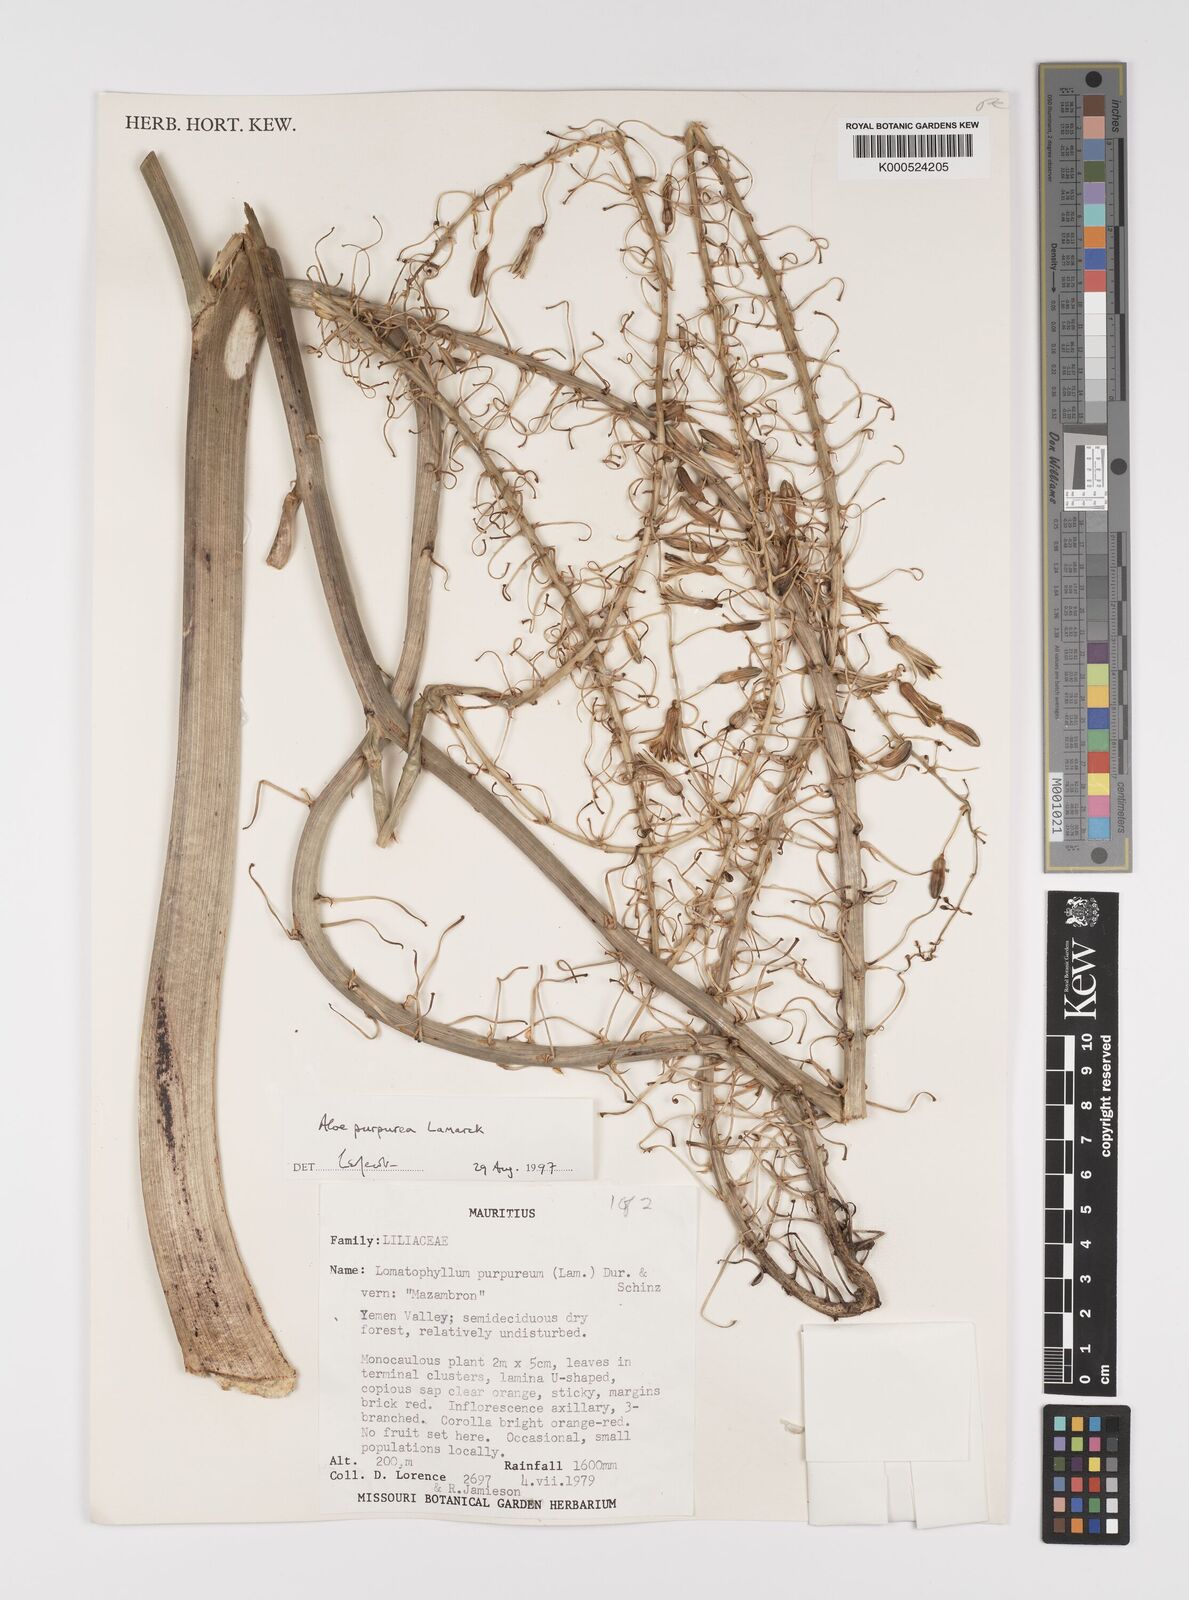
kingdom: Plantae
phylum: Tracheophyta
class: Liliopsida
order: Asparagales
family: Asphodelaceae
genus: Aloe
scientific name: Aloe purpurea
